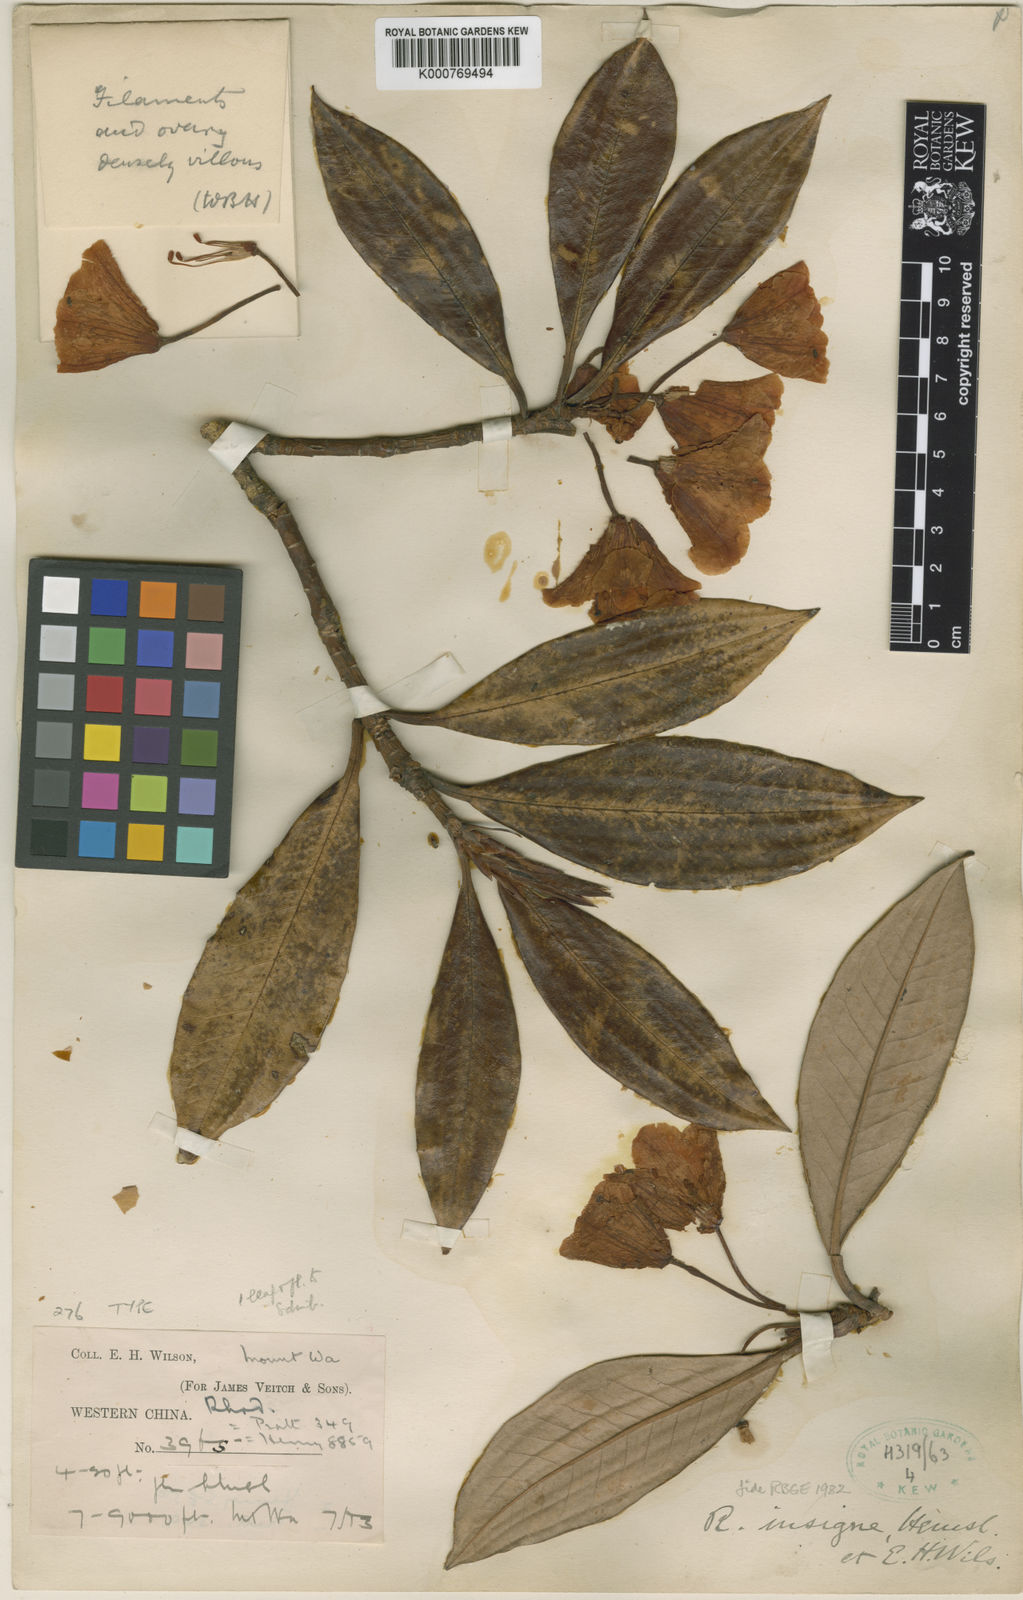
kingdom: Plantae
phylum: Tracheophyta
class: Magnoliopsida
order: Ericales
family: Ericaceae
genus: Rhododendron
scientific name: Rhododendron insigne
